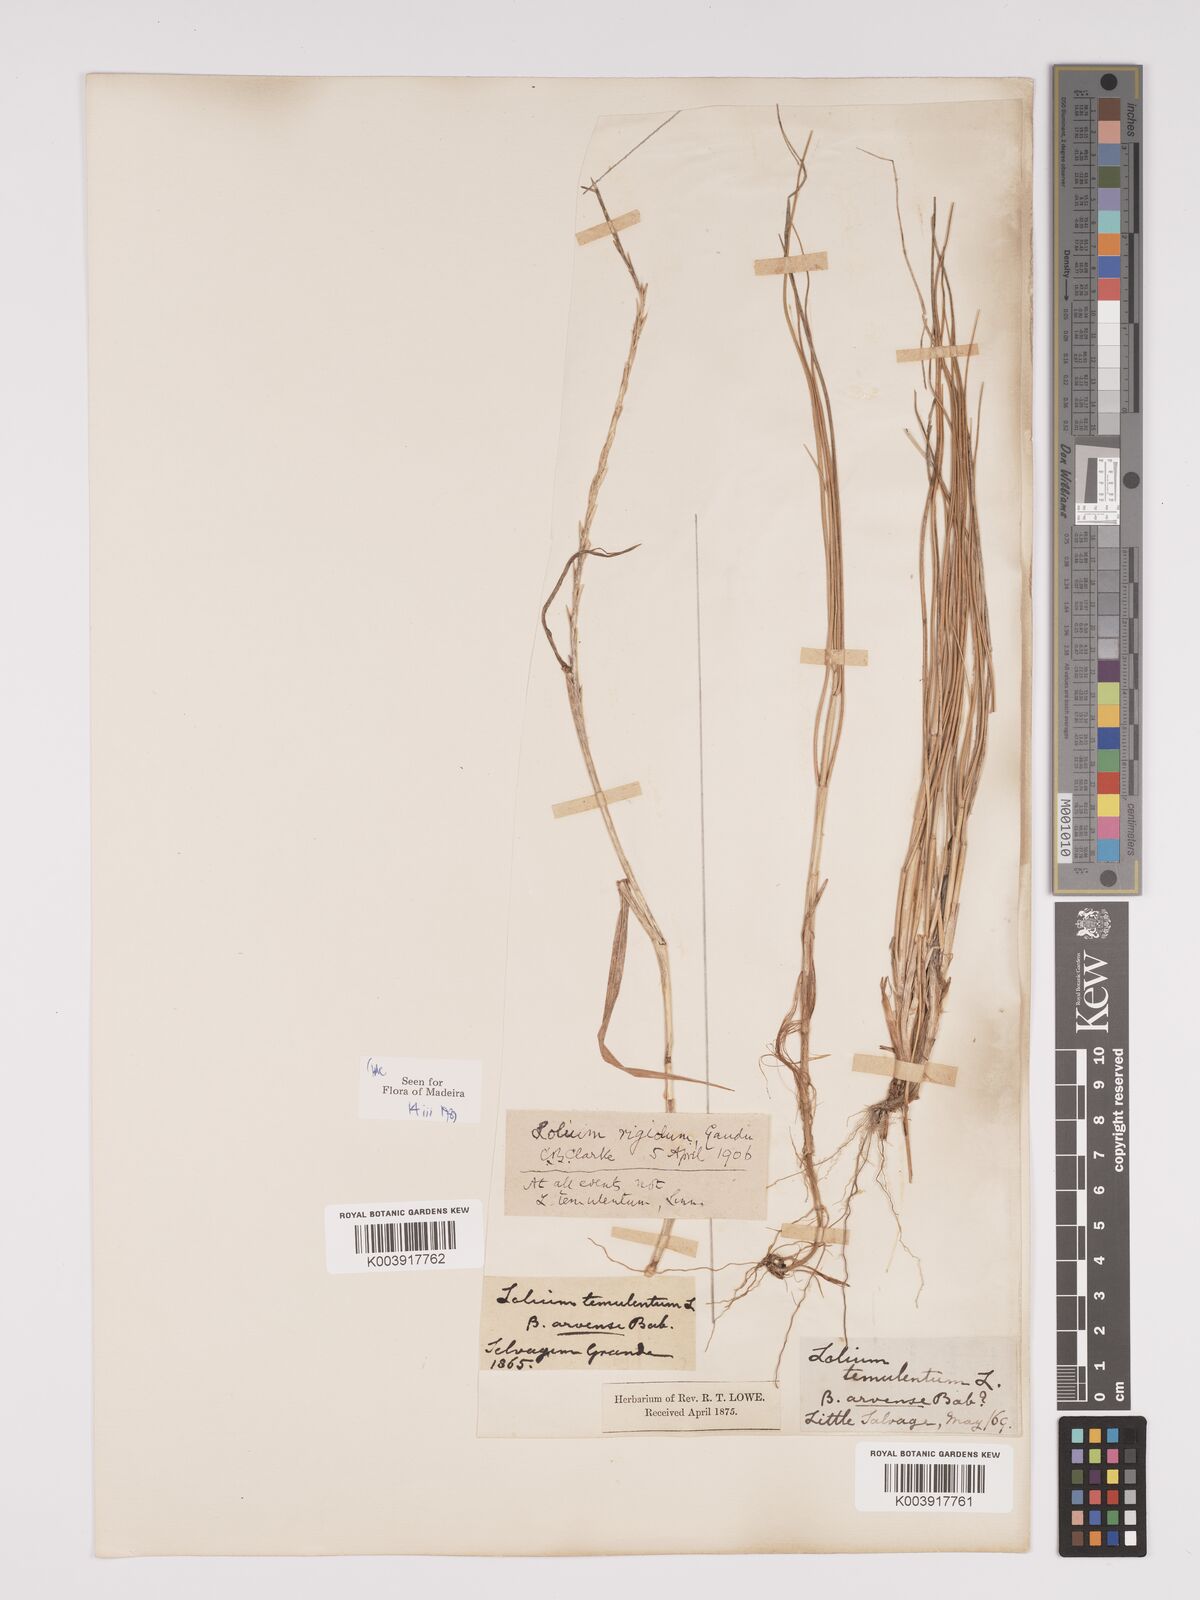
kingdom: Plantae
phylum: Tracheophyta
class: Liliopsida
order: Poales
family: Poaceae
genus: Lolium
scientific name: Lolium rigidum
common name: Wimmera ryegrass
